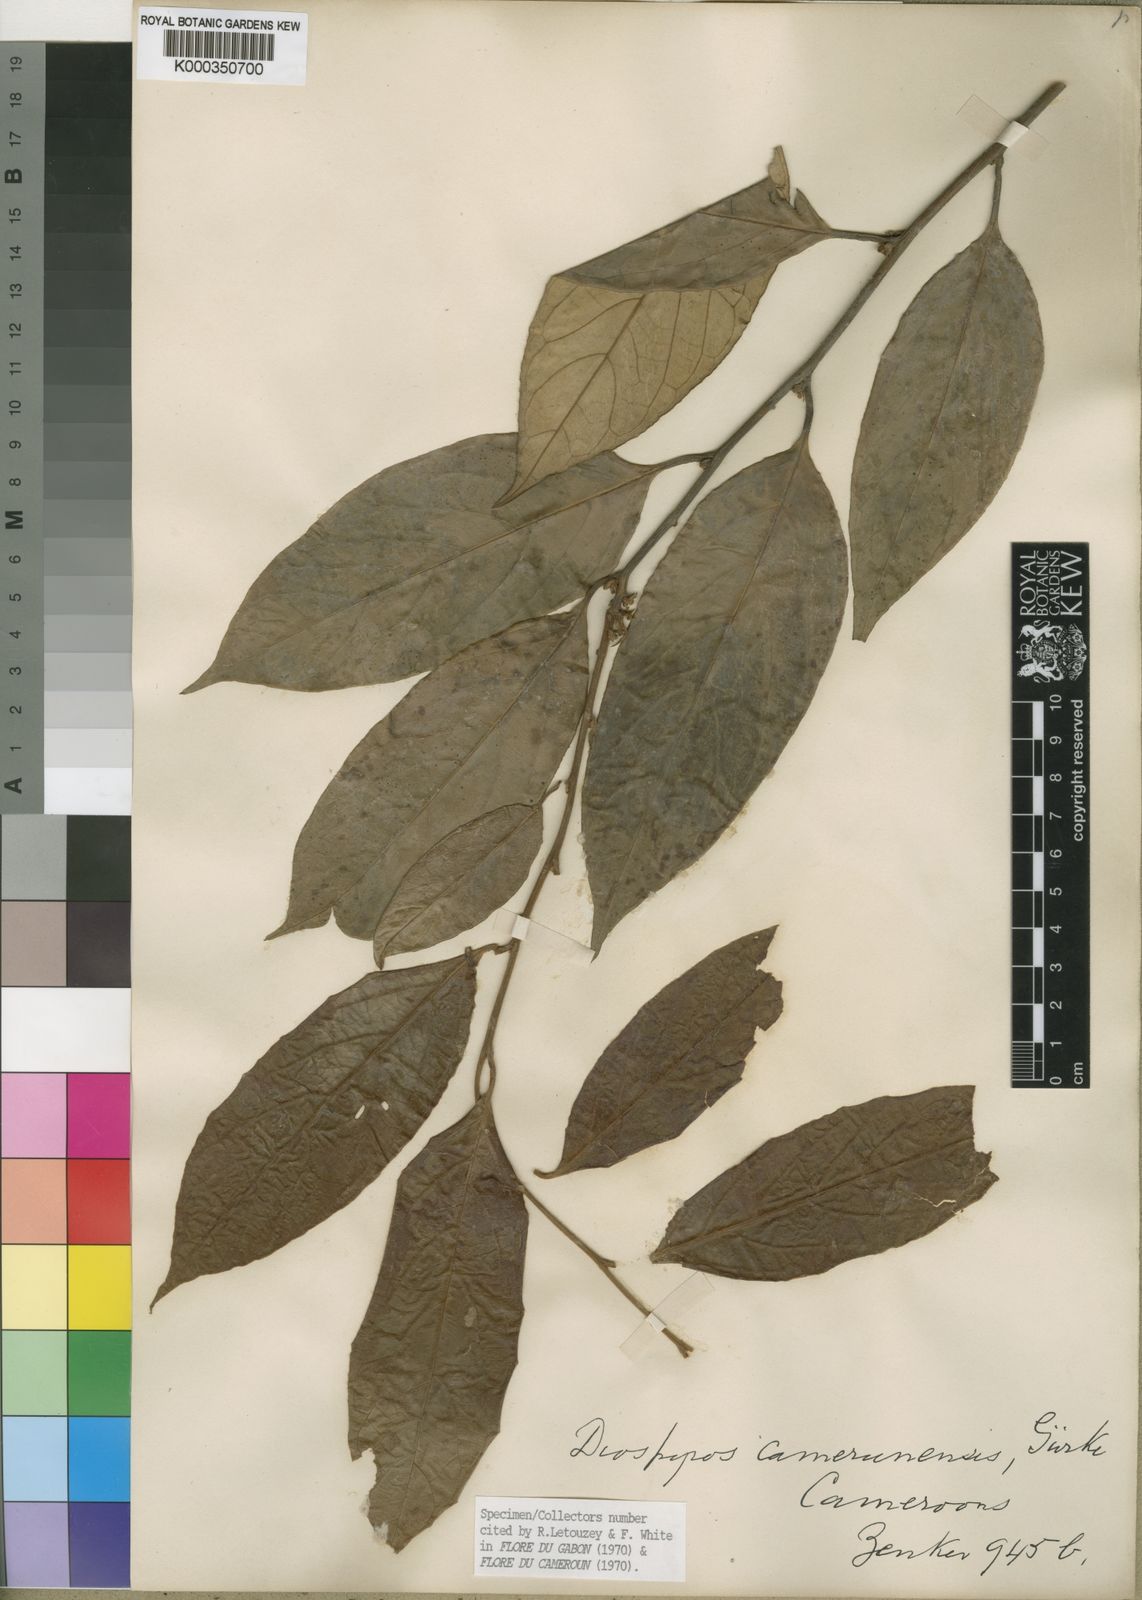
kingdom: Plantae
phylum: Tracheophyta
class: Magnoliopsida
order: Ericales
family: Ebenaceae
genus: Diospyros
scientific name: Diospyros
